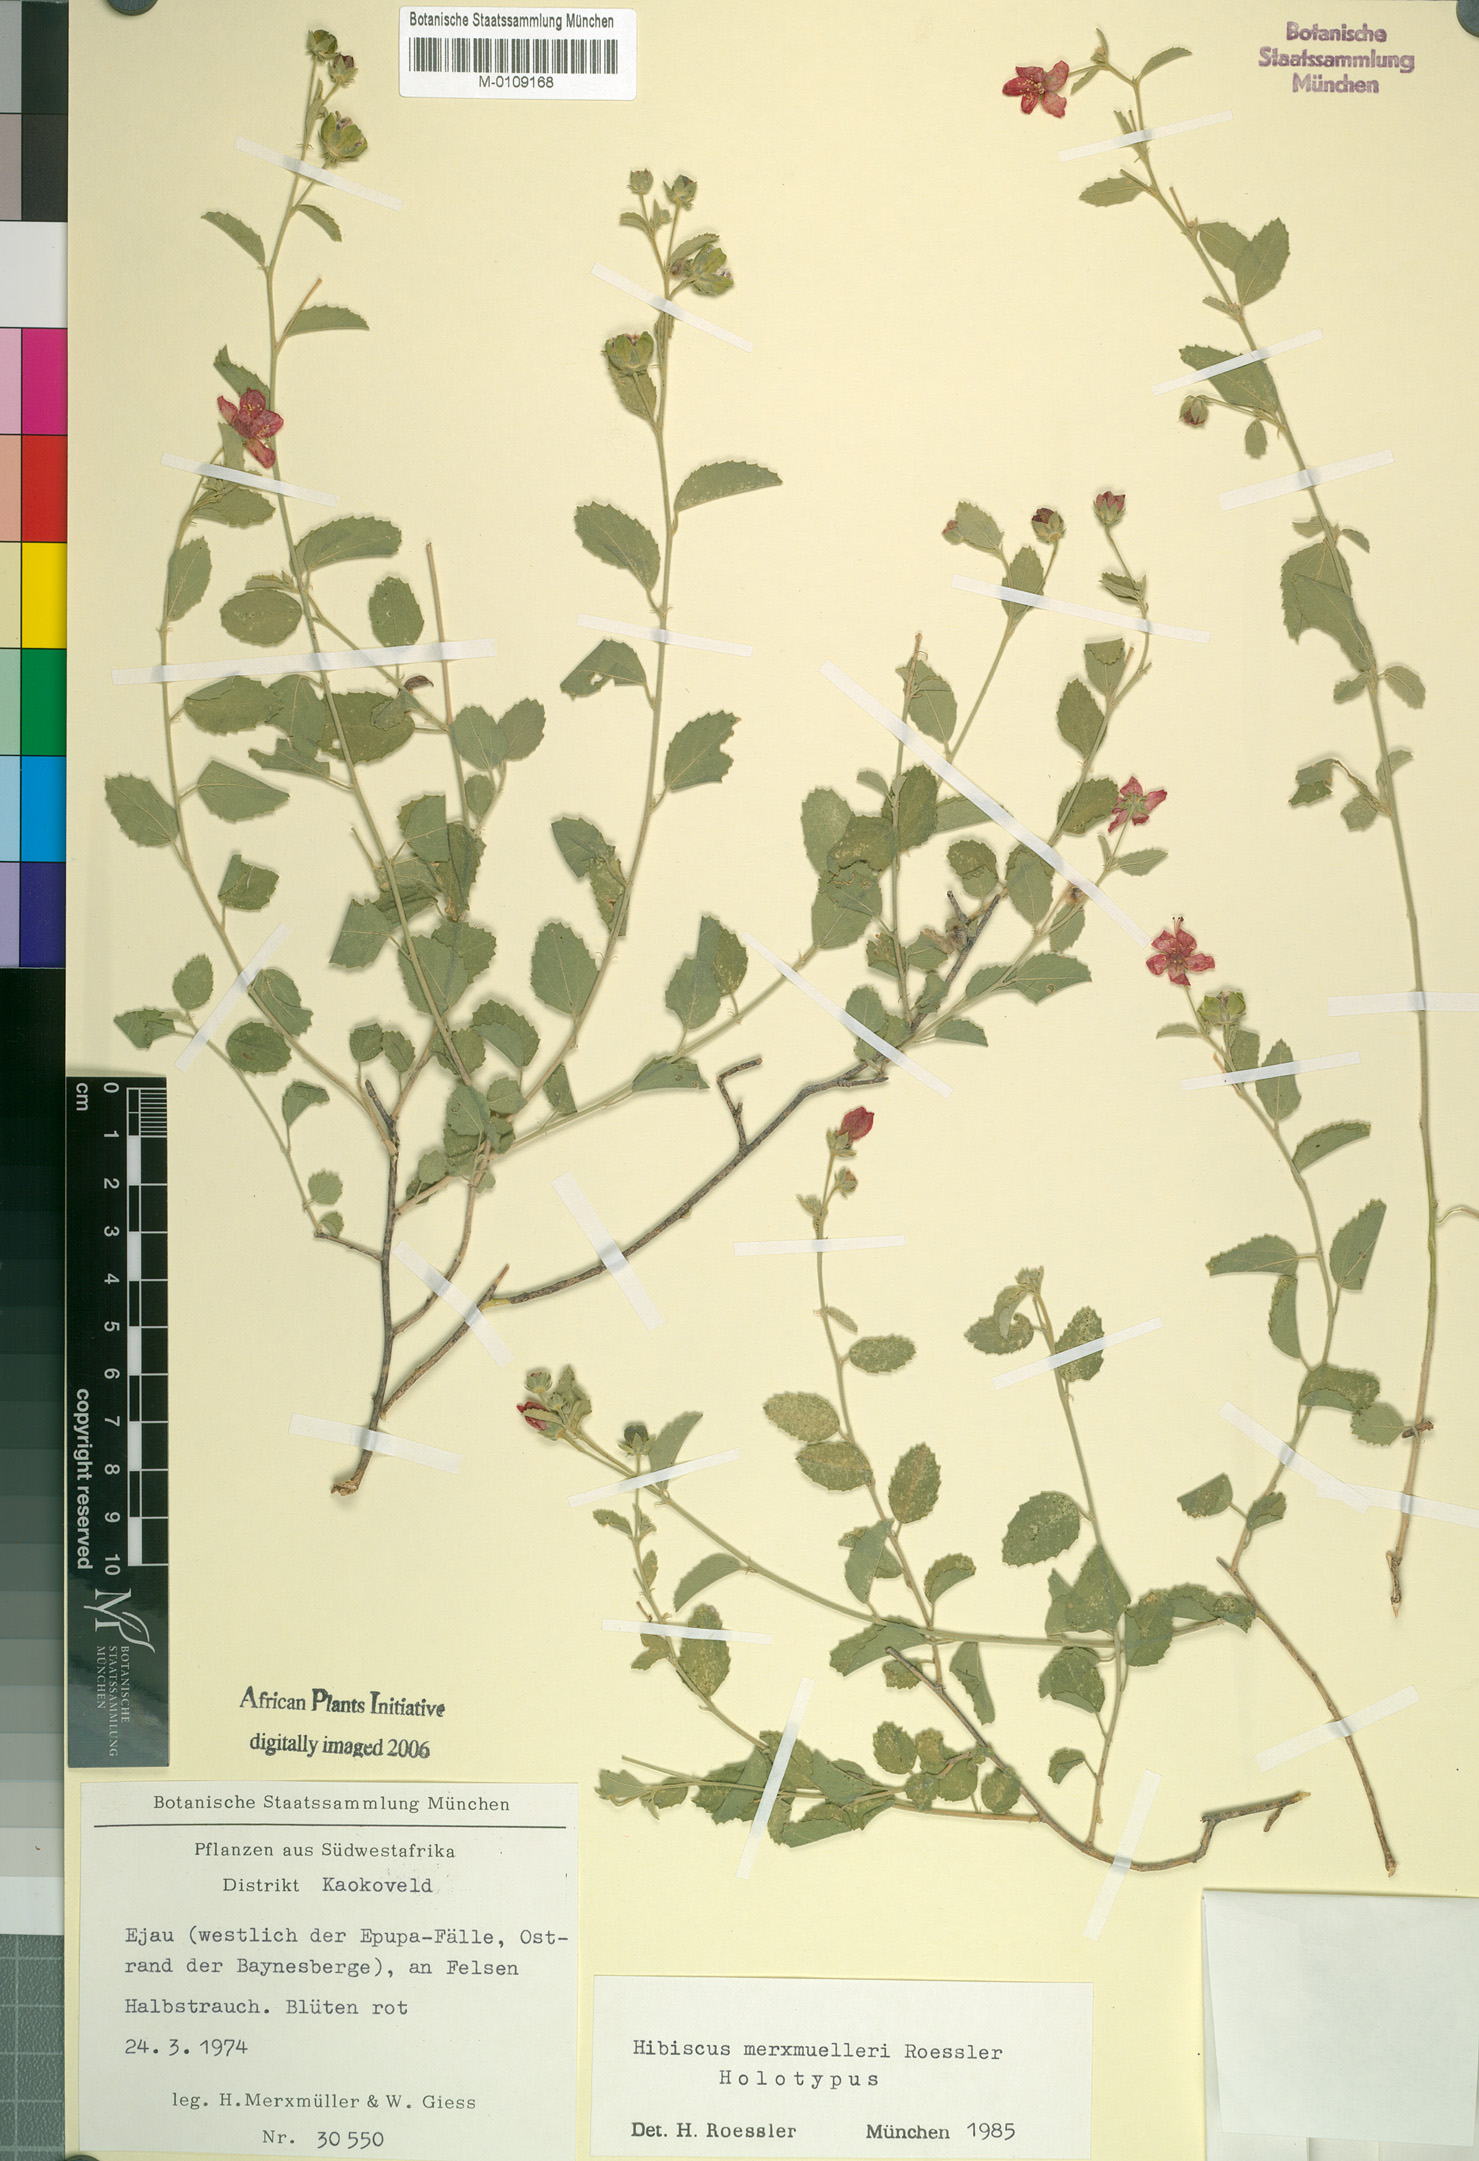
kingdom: Plantae
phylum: Tracheophyta
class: Magnoliopsida
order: Malvales
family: Malvaceae
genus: Hibiscus
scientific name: Hibiscus merxmuelleri
